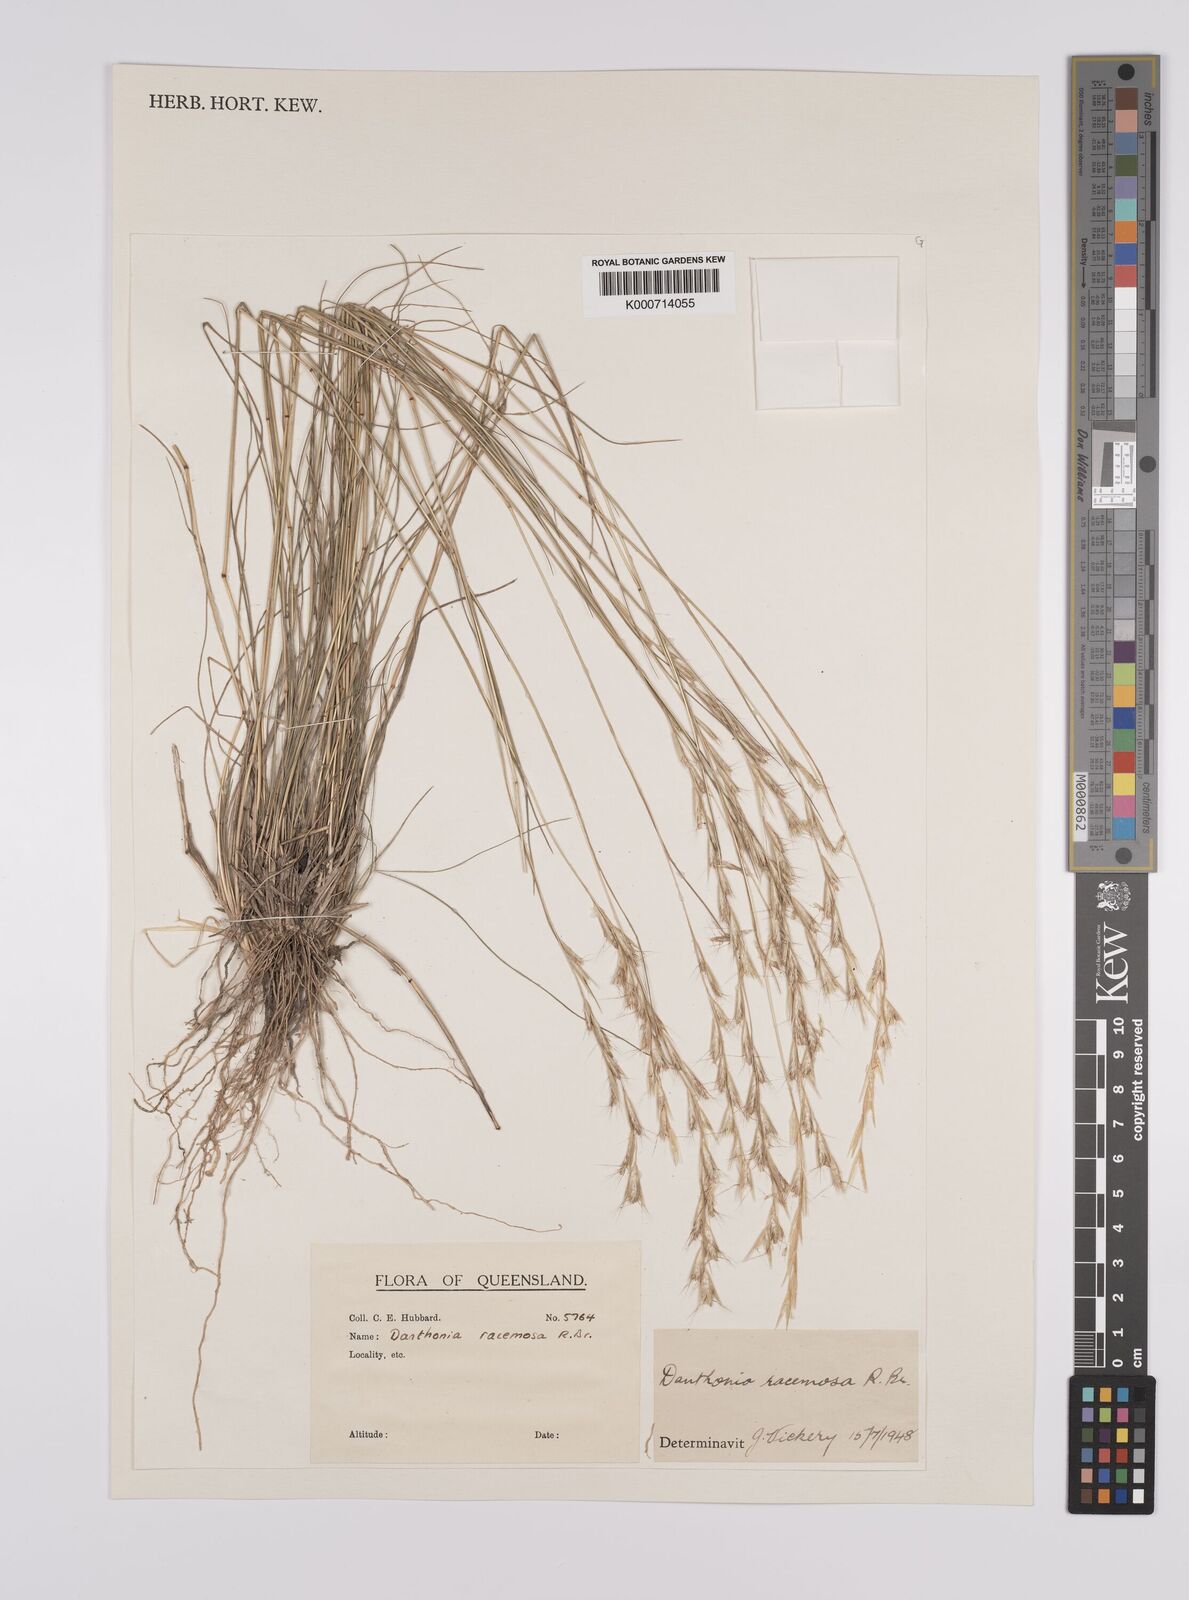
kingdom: Plantae
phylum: Tracheophyta
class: Liliopsida
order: Poales
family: Poaceae
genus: Rytidosperma
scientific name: Rytidosperma racemosum
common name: Wallaby-grass
